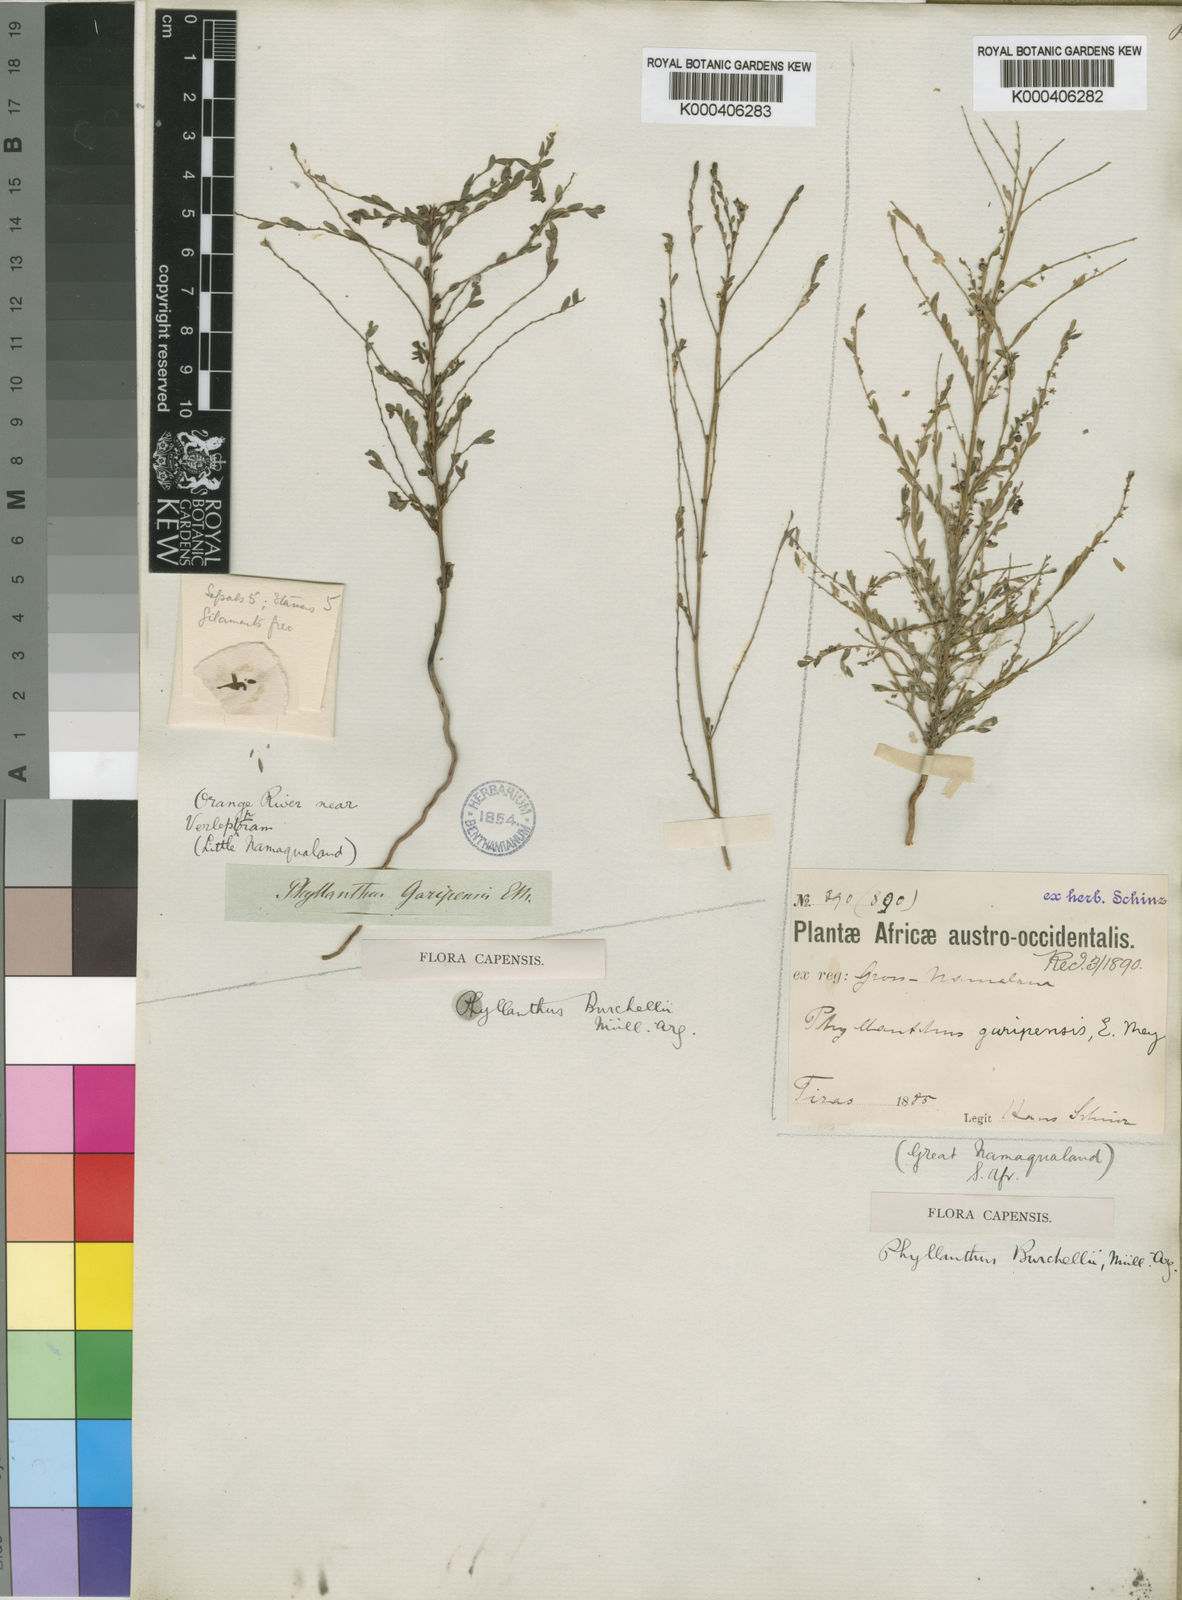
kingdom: Plantae
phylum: Tracheophyta
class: Magnoliopsida
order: Malpighiales
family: Phyllanthaceae
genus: Phyllanthus
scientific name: Phyllanthus
